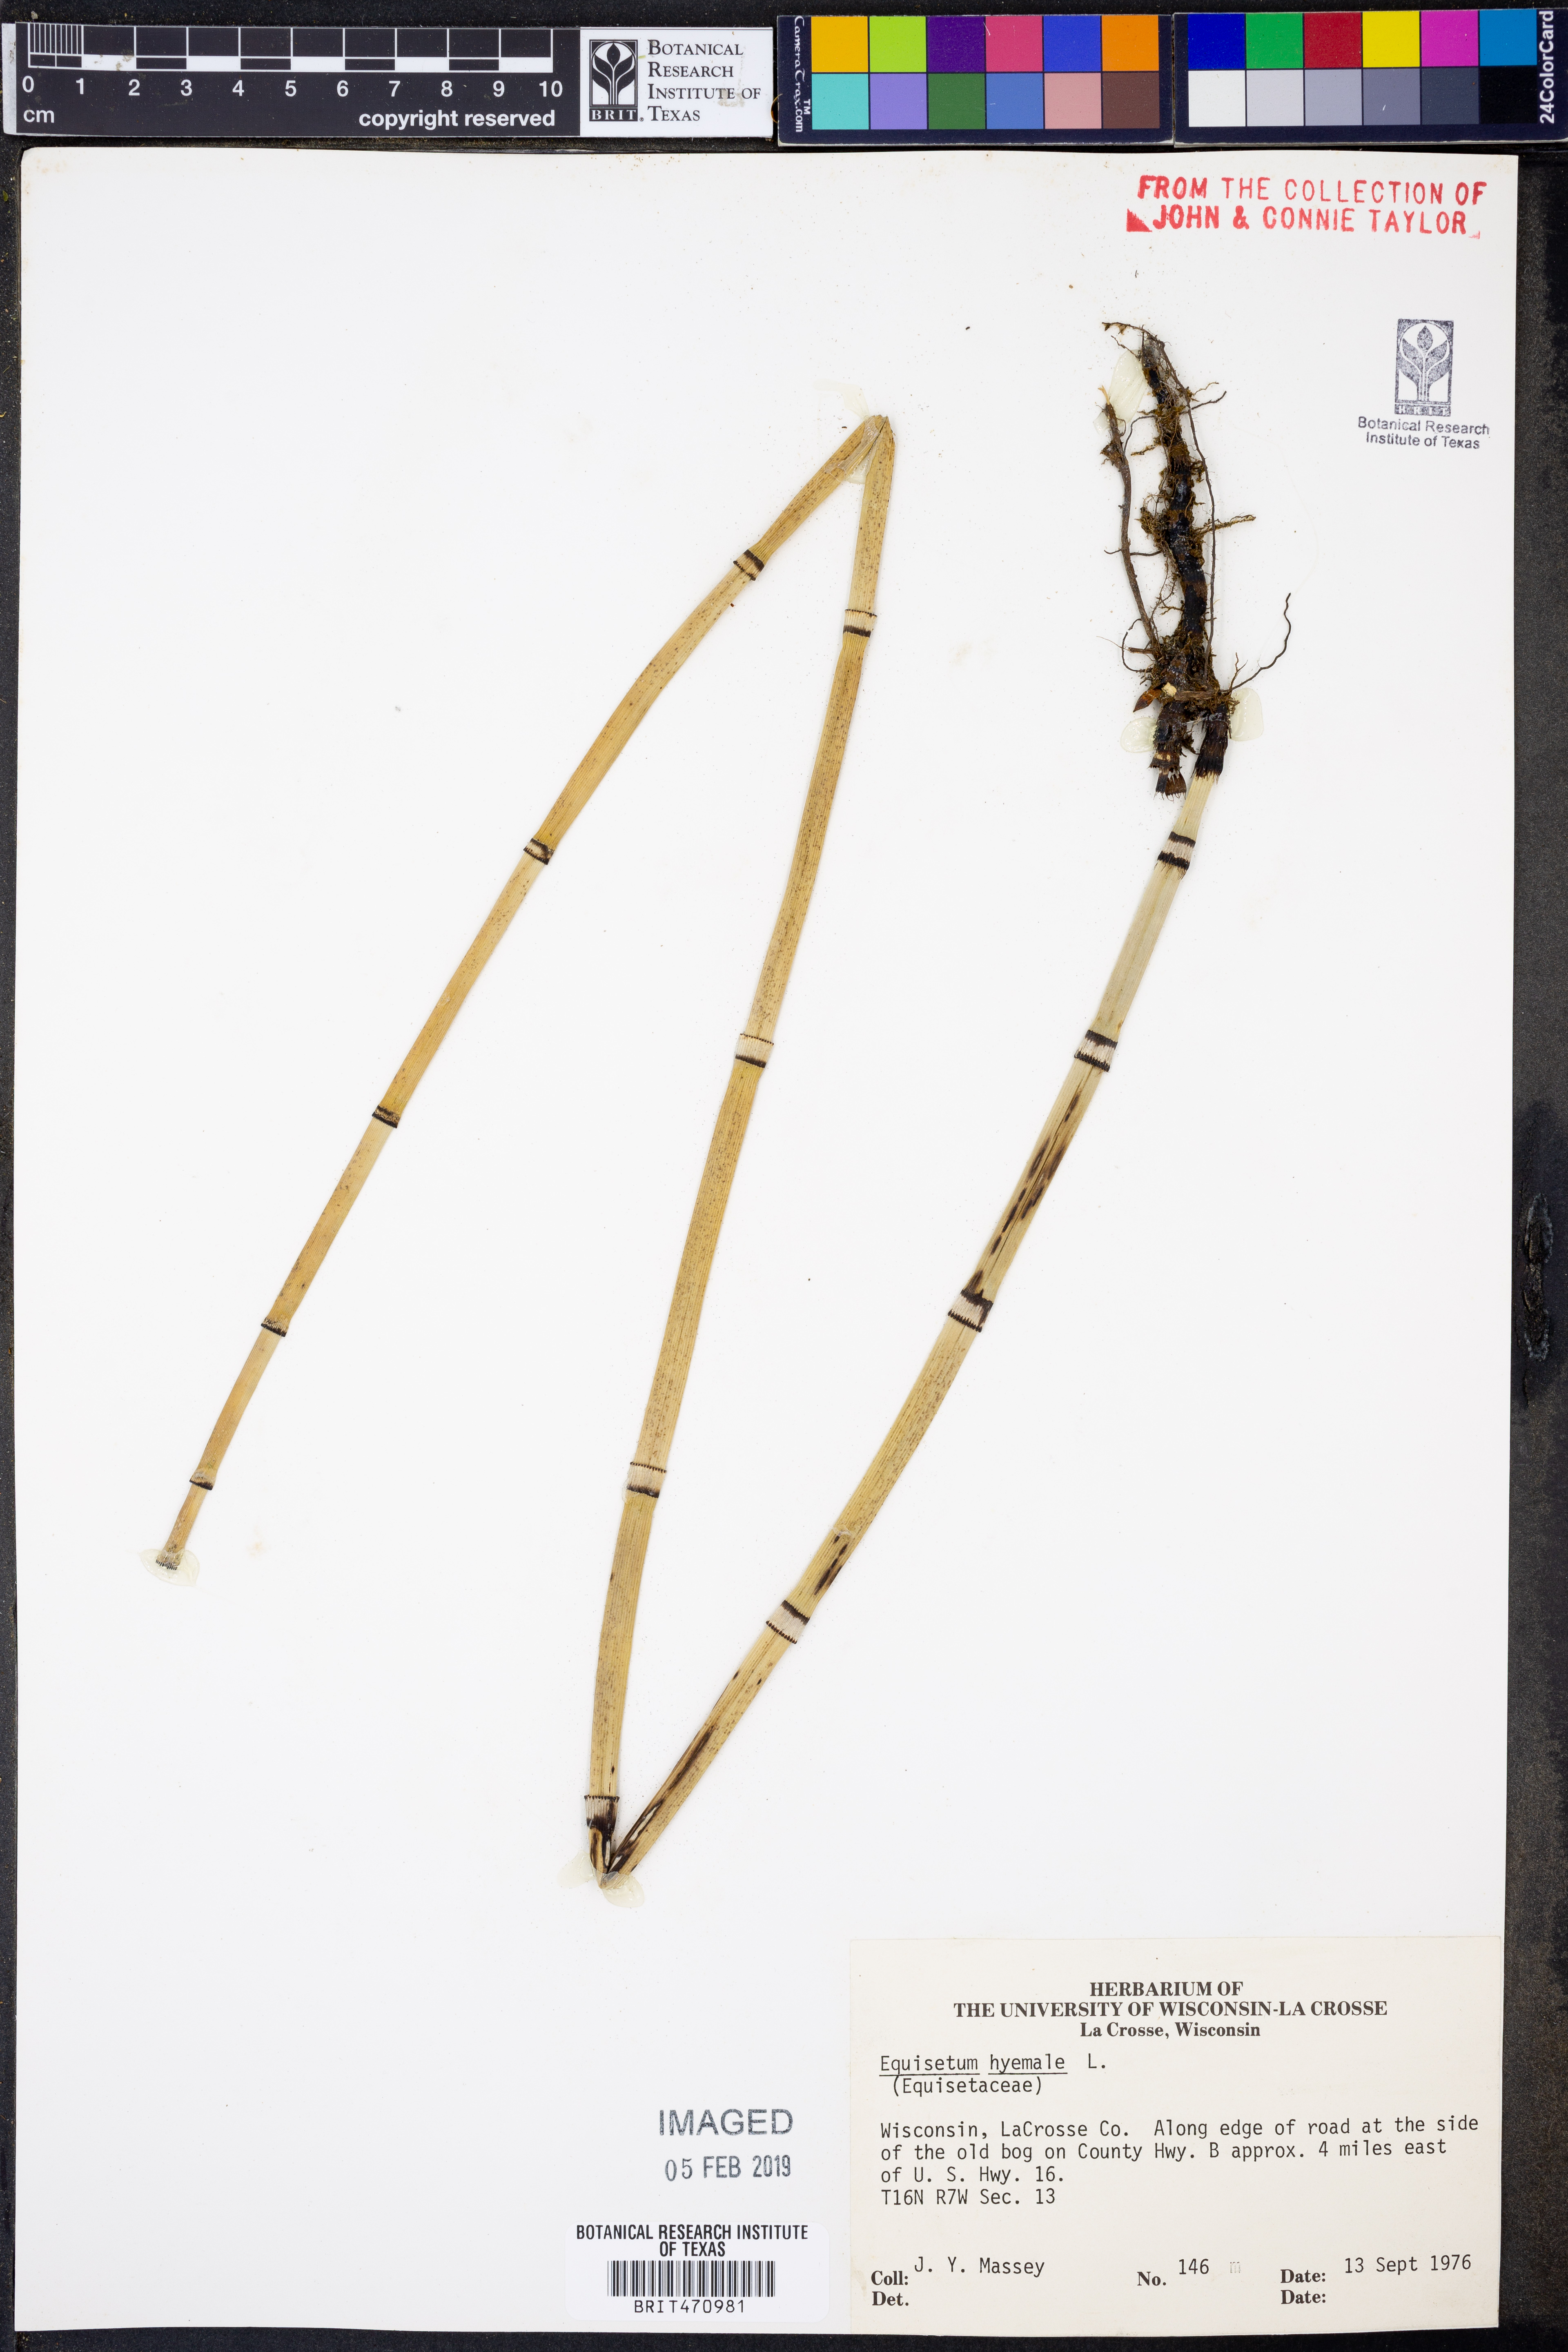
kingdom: Plantae
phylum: Tracheophyta
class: Polypodiopsida
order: Equisetales
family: Equisetaceae
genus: Equisetum
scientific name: Equisetum hyemale
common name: Rough horsetail
